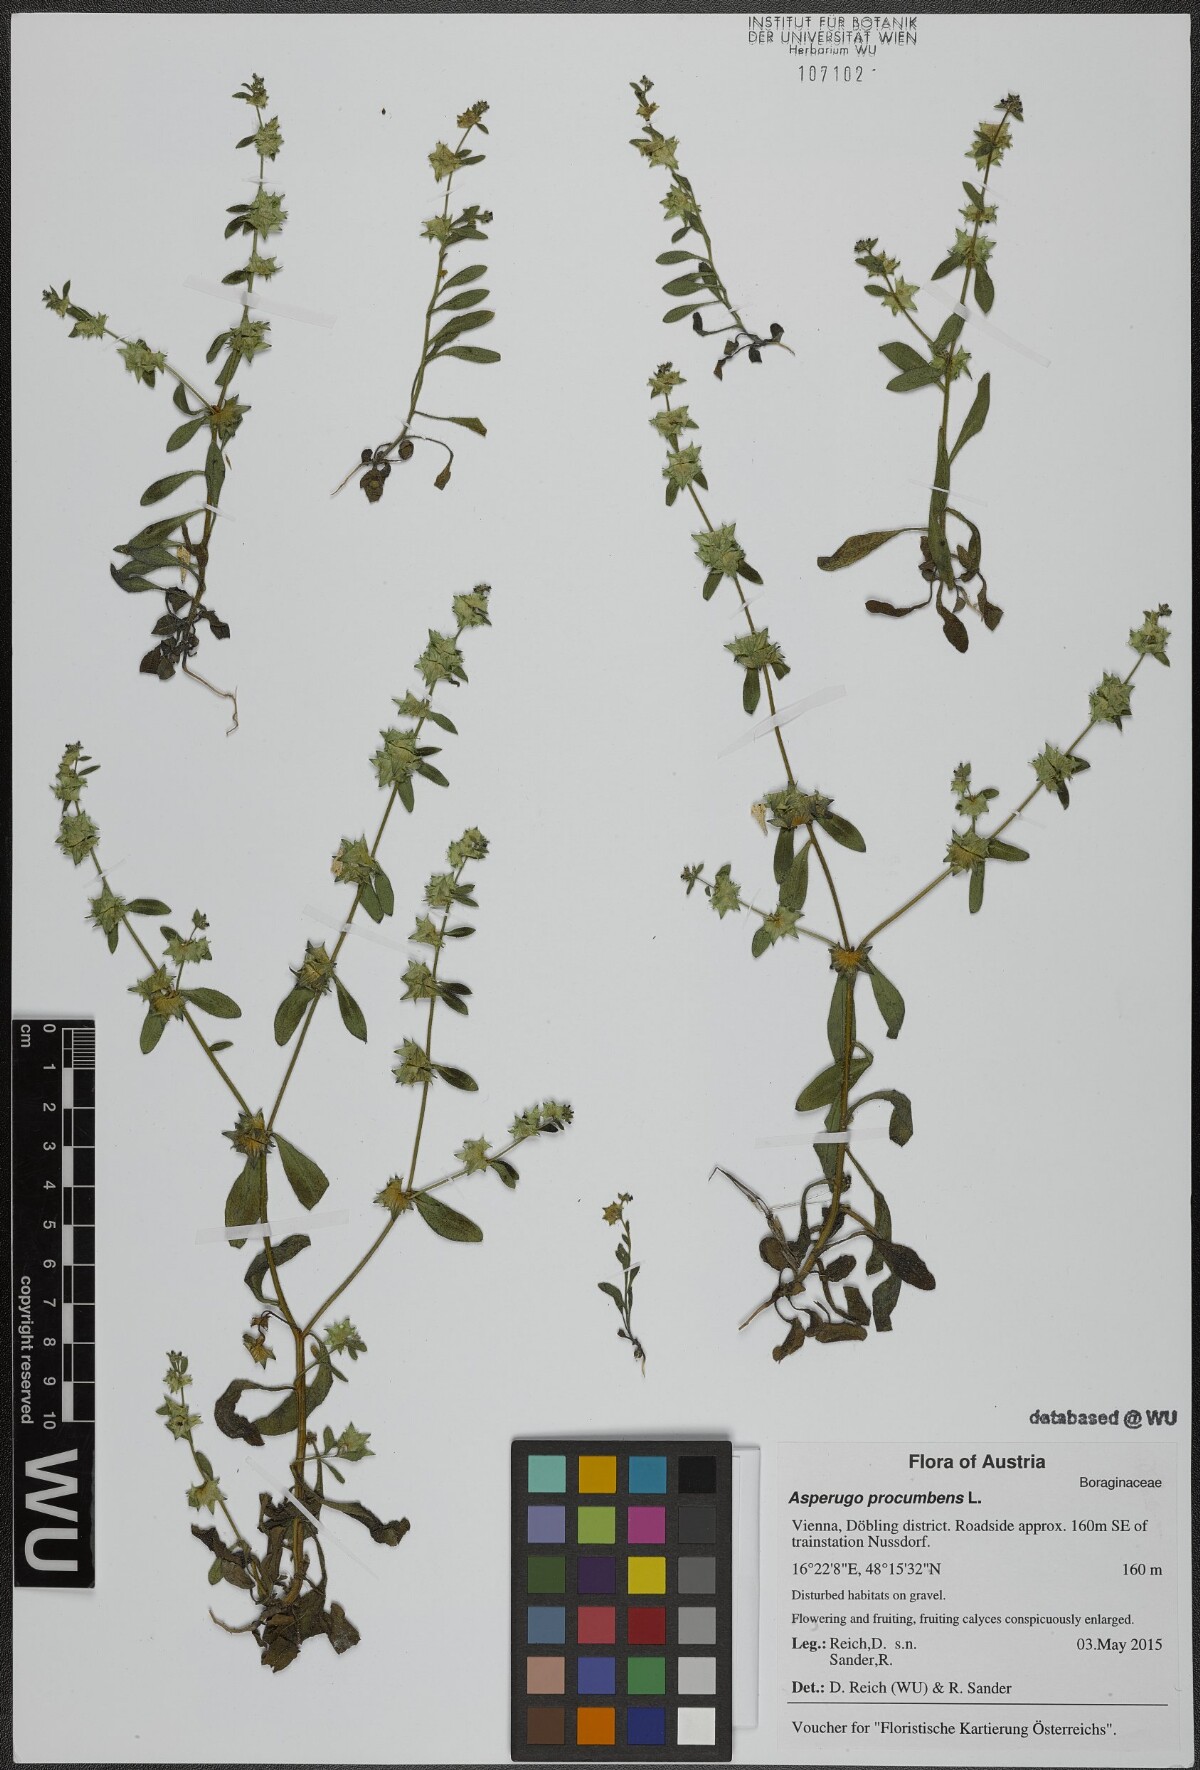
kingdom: Plantae
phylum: Tracheophyta
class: Magnoliopsida
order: Boraginales
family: Boraginaceae
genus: Asperugo
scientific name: Asperugo procumbens
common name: Madwort
